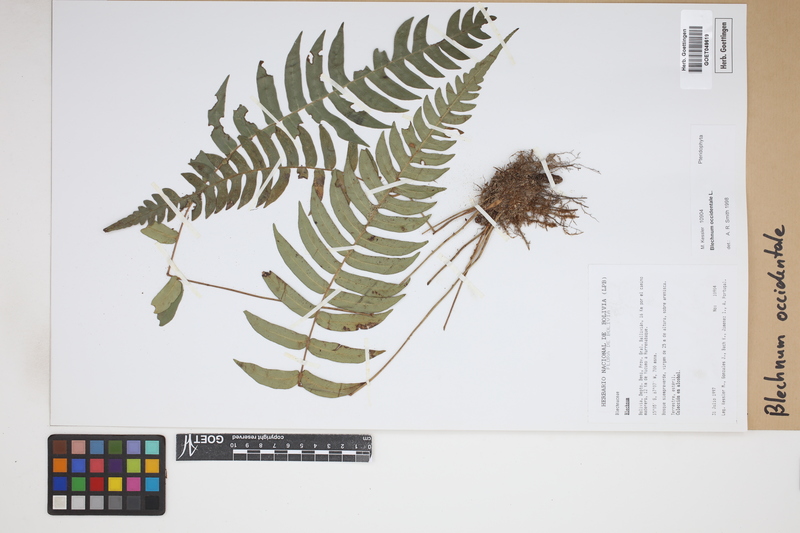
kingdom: Plantae
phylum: Tracheophyta
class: Polypodiopsida
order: Polypodiales
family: Blechnaceae
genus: Blechnum
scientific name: Blechnum occidentale
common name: Hammock fern
